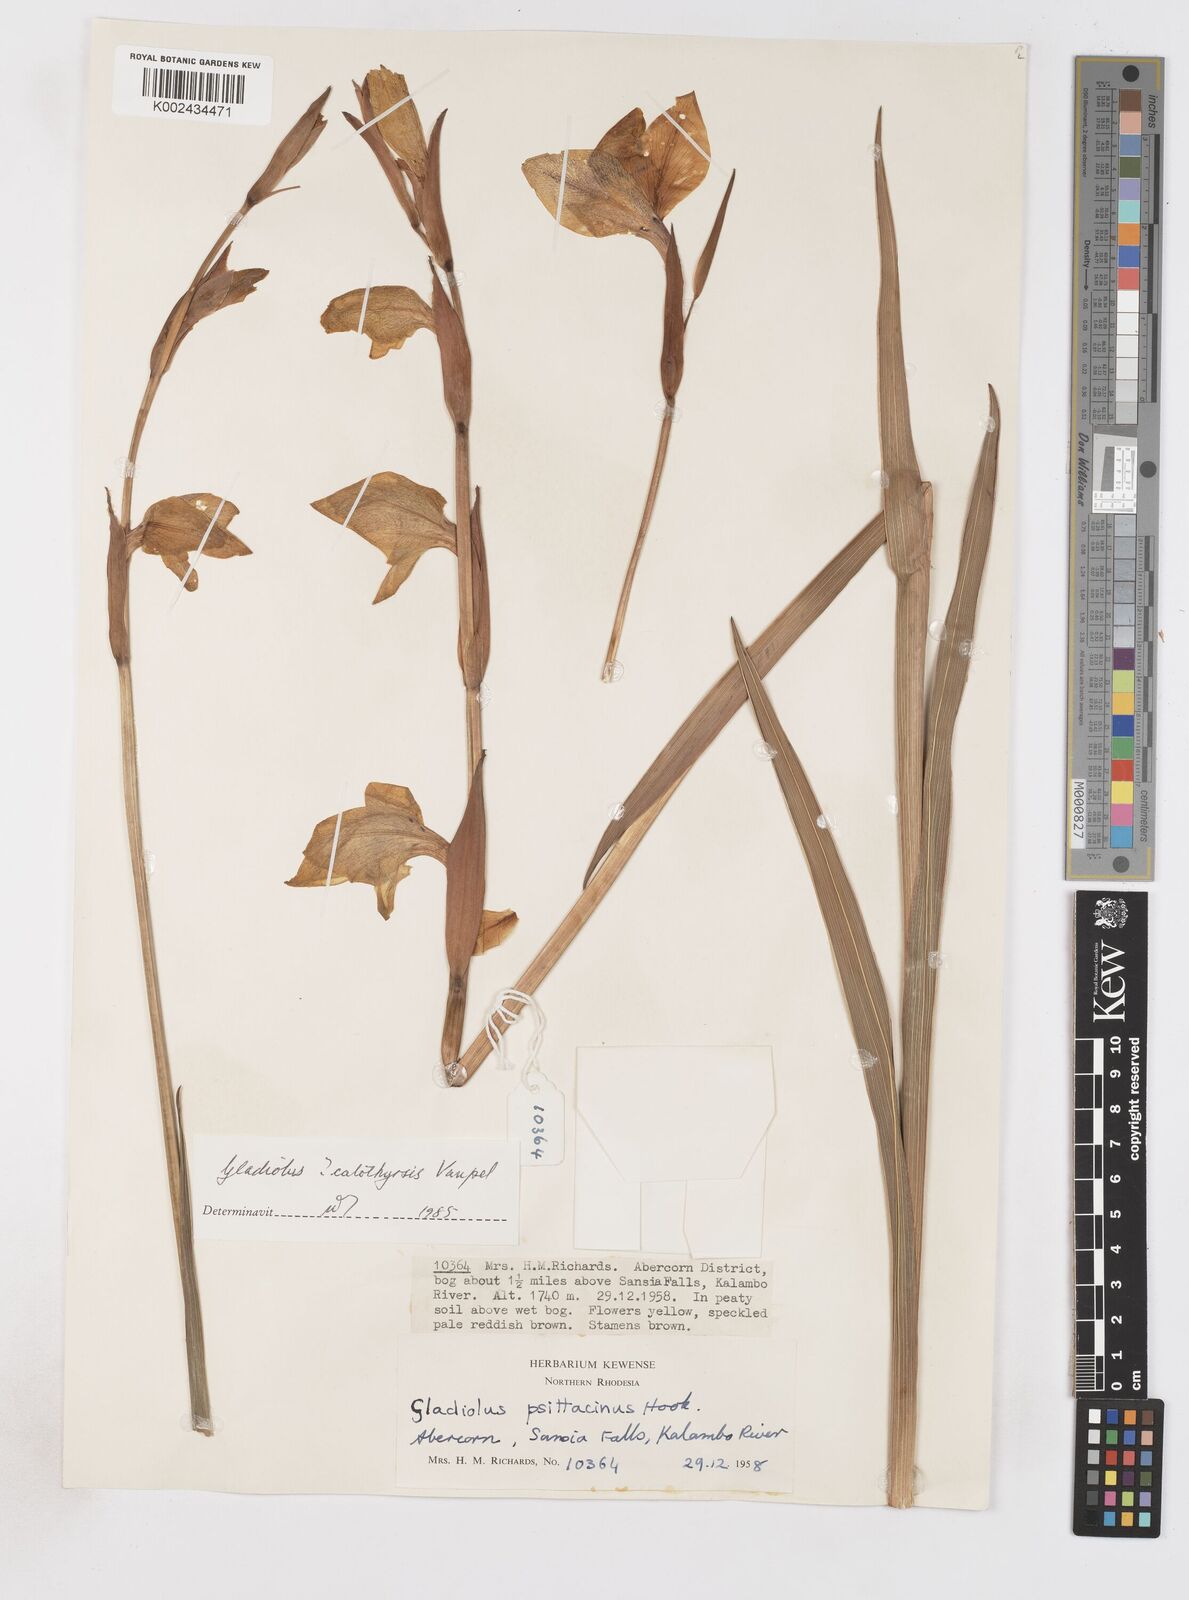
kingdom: Plantae
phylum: Tracheophyta
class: Liliopsida
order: Asparagales
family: Iridaceae
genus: Gladiolus
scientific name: Gladiolus dalenii
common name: Cornflag
